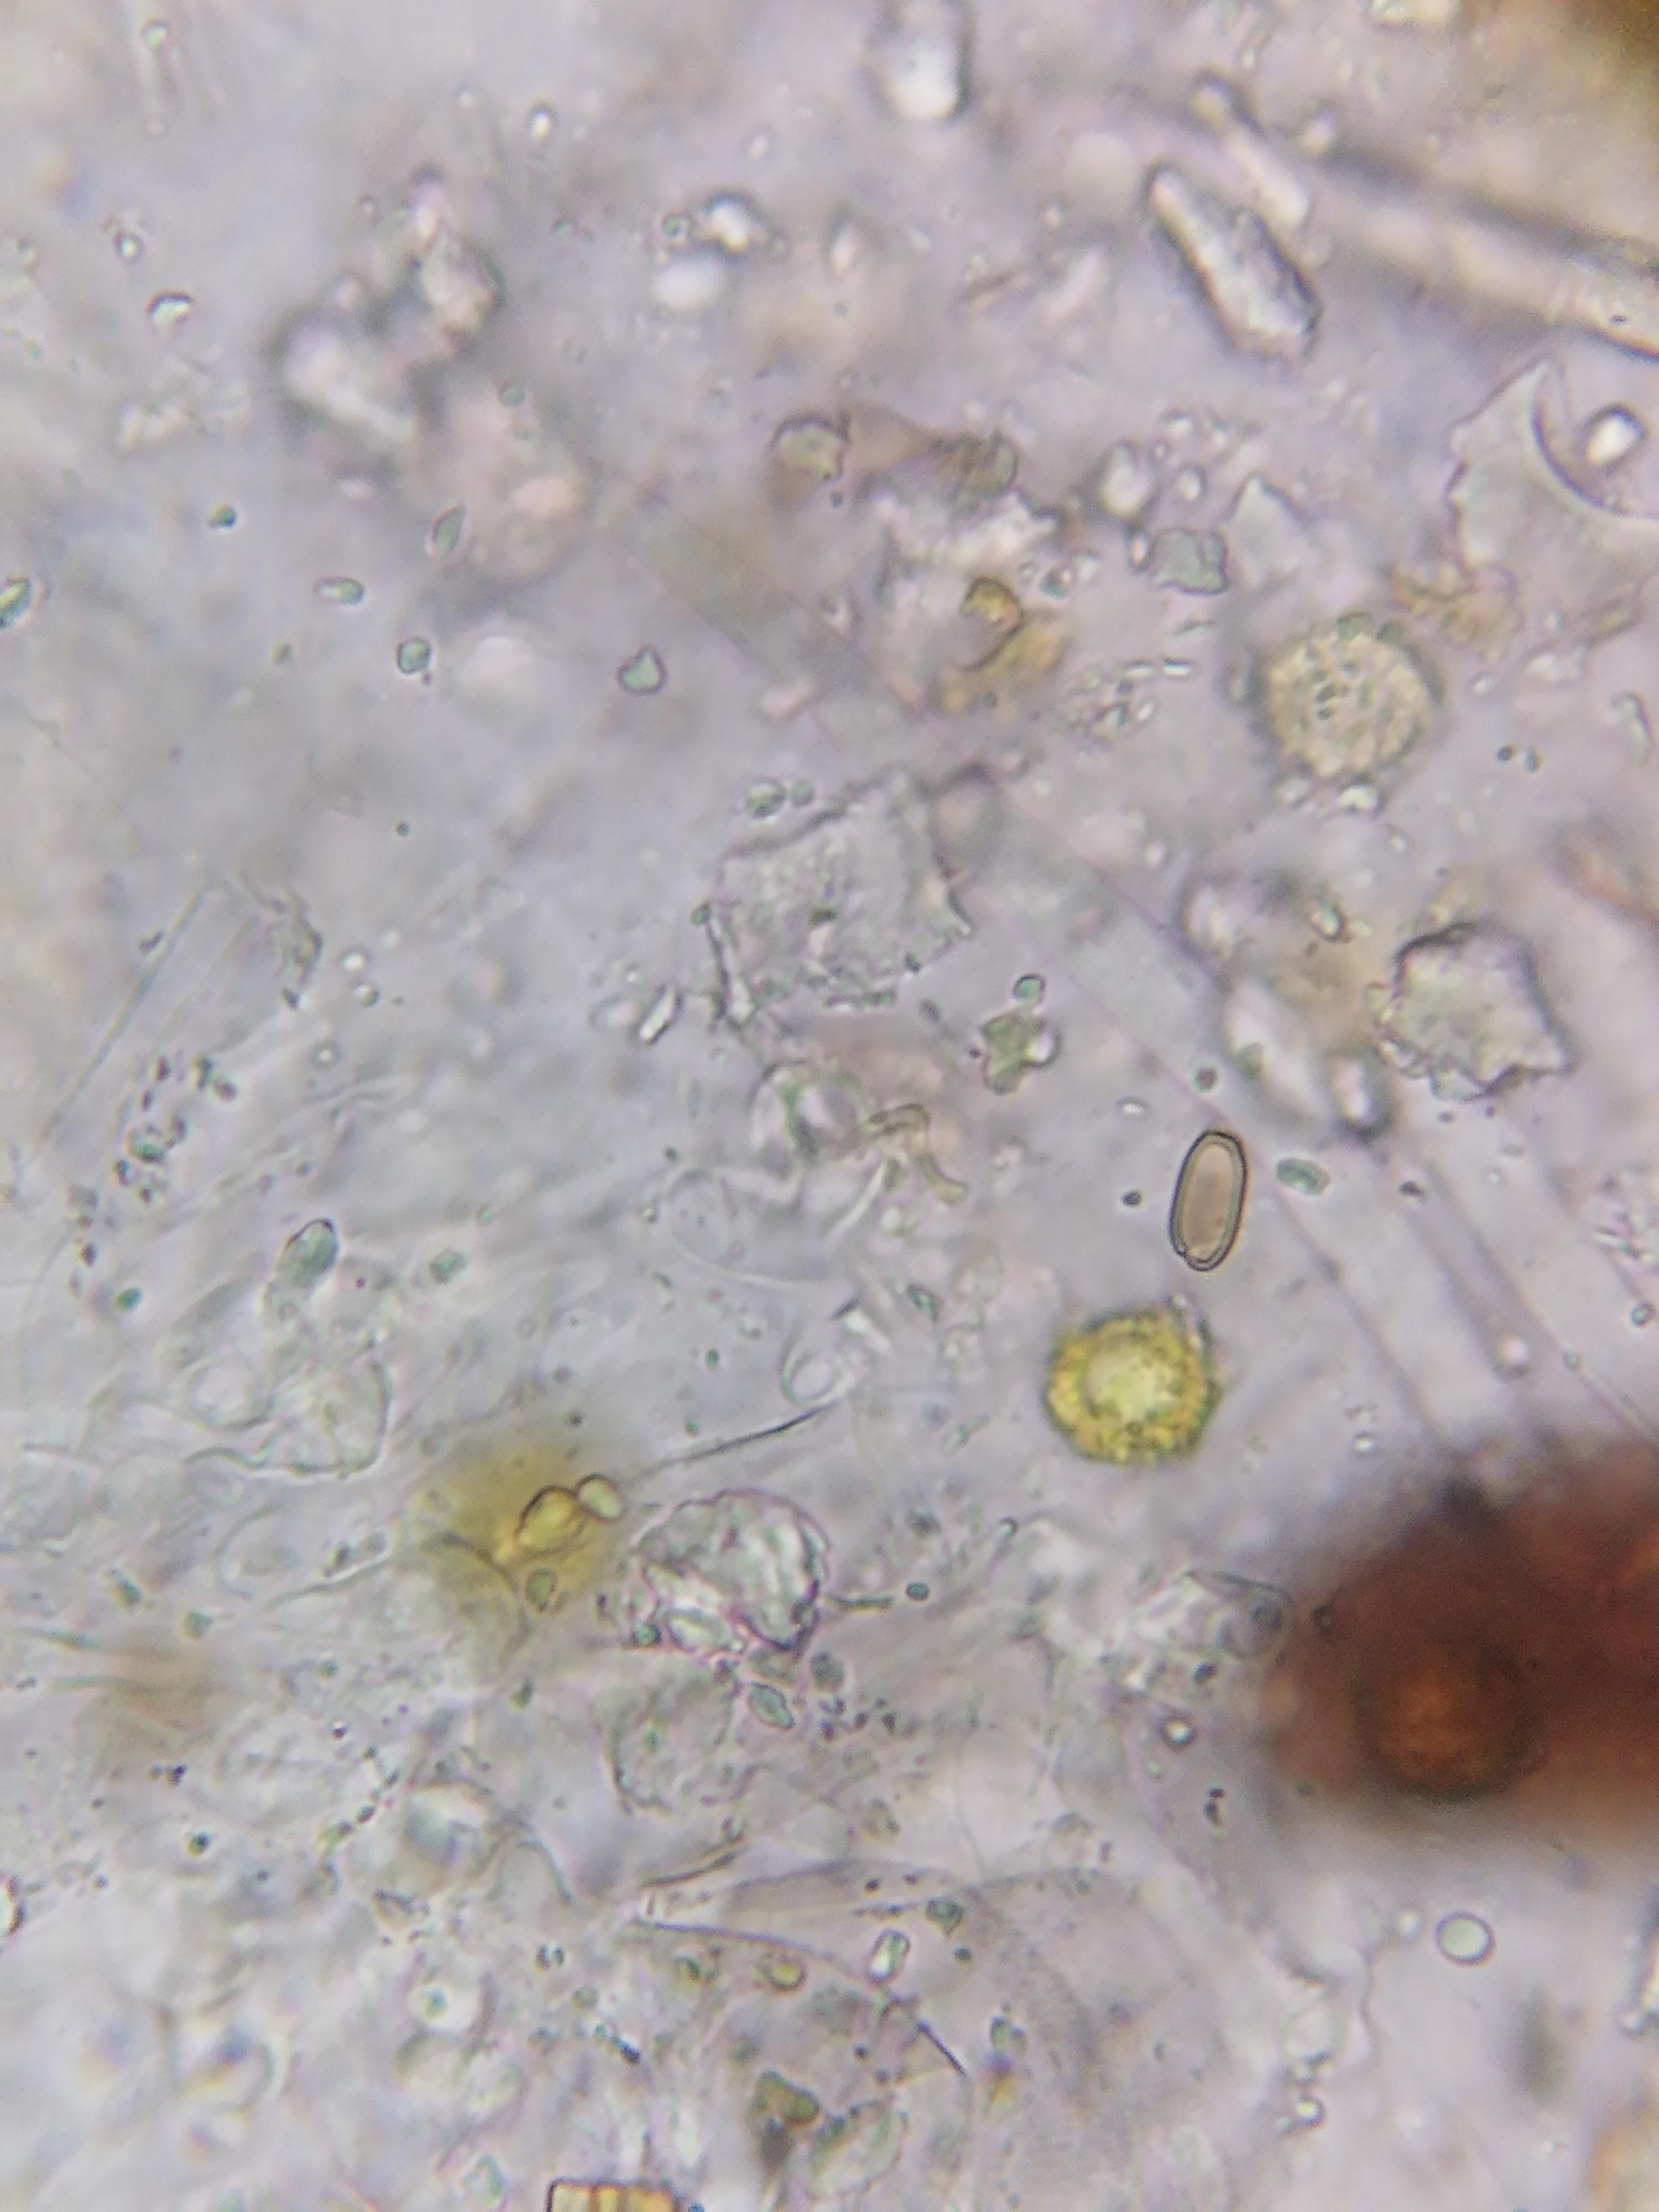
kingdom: Fungi
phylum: Ascomycota
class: Leotiomycetes
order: Helotiales
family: Sclerotiniaceae
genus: Ciboria
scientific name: Ciboria
